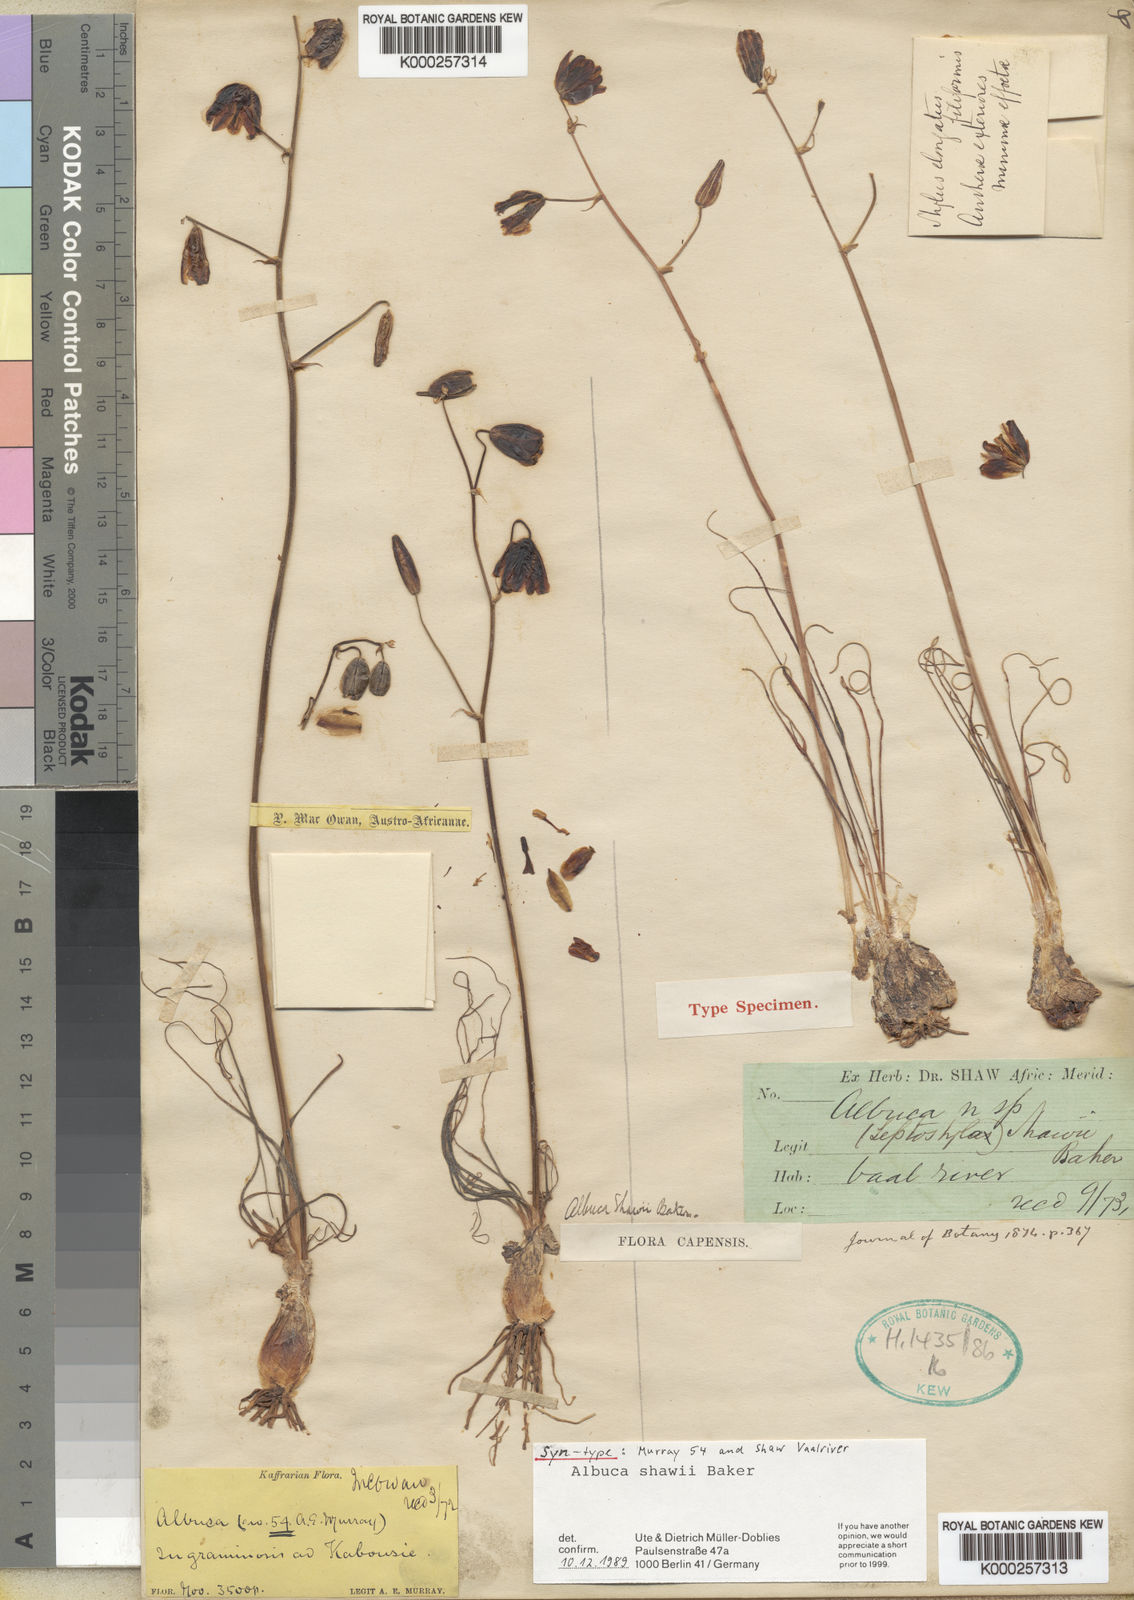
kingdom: Plantae
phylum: Tracheophyta
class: Liliopsida
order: Asparagales
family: Asparagaceae
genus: Albuca
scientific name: Albuca shawii
